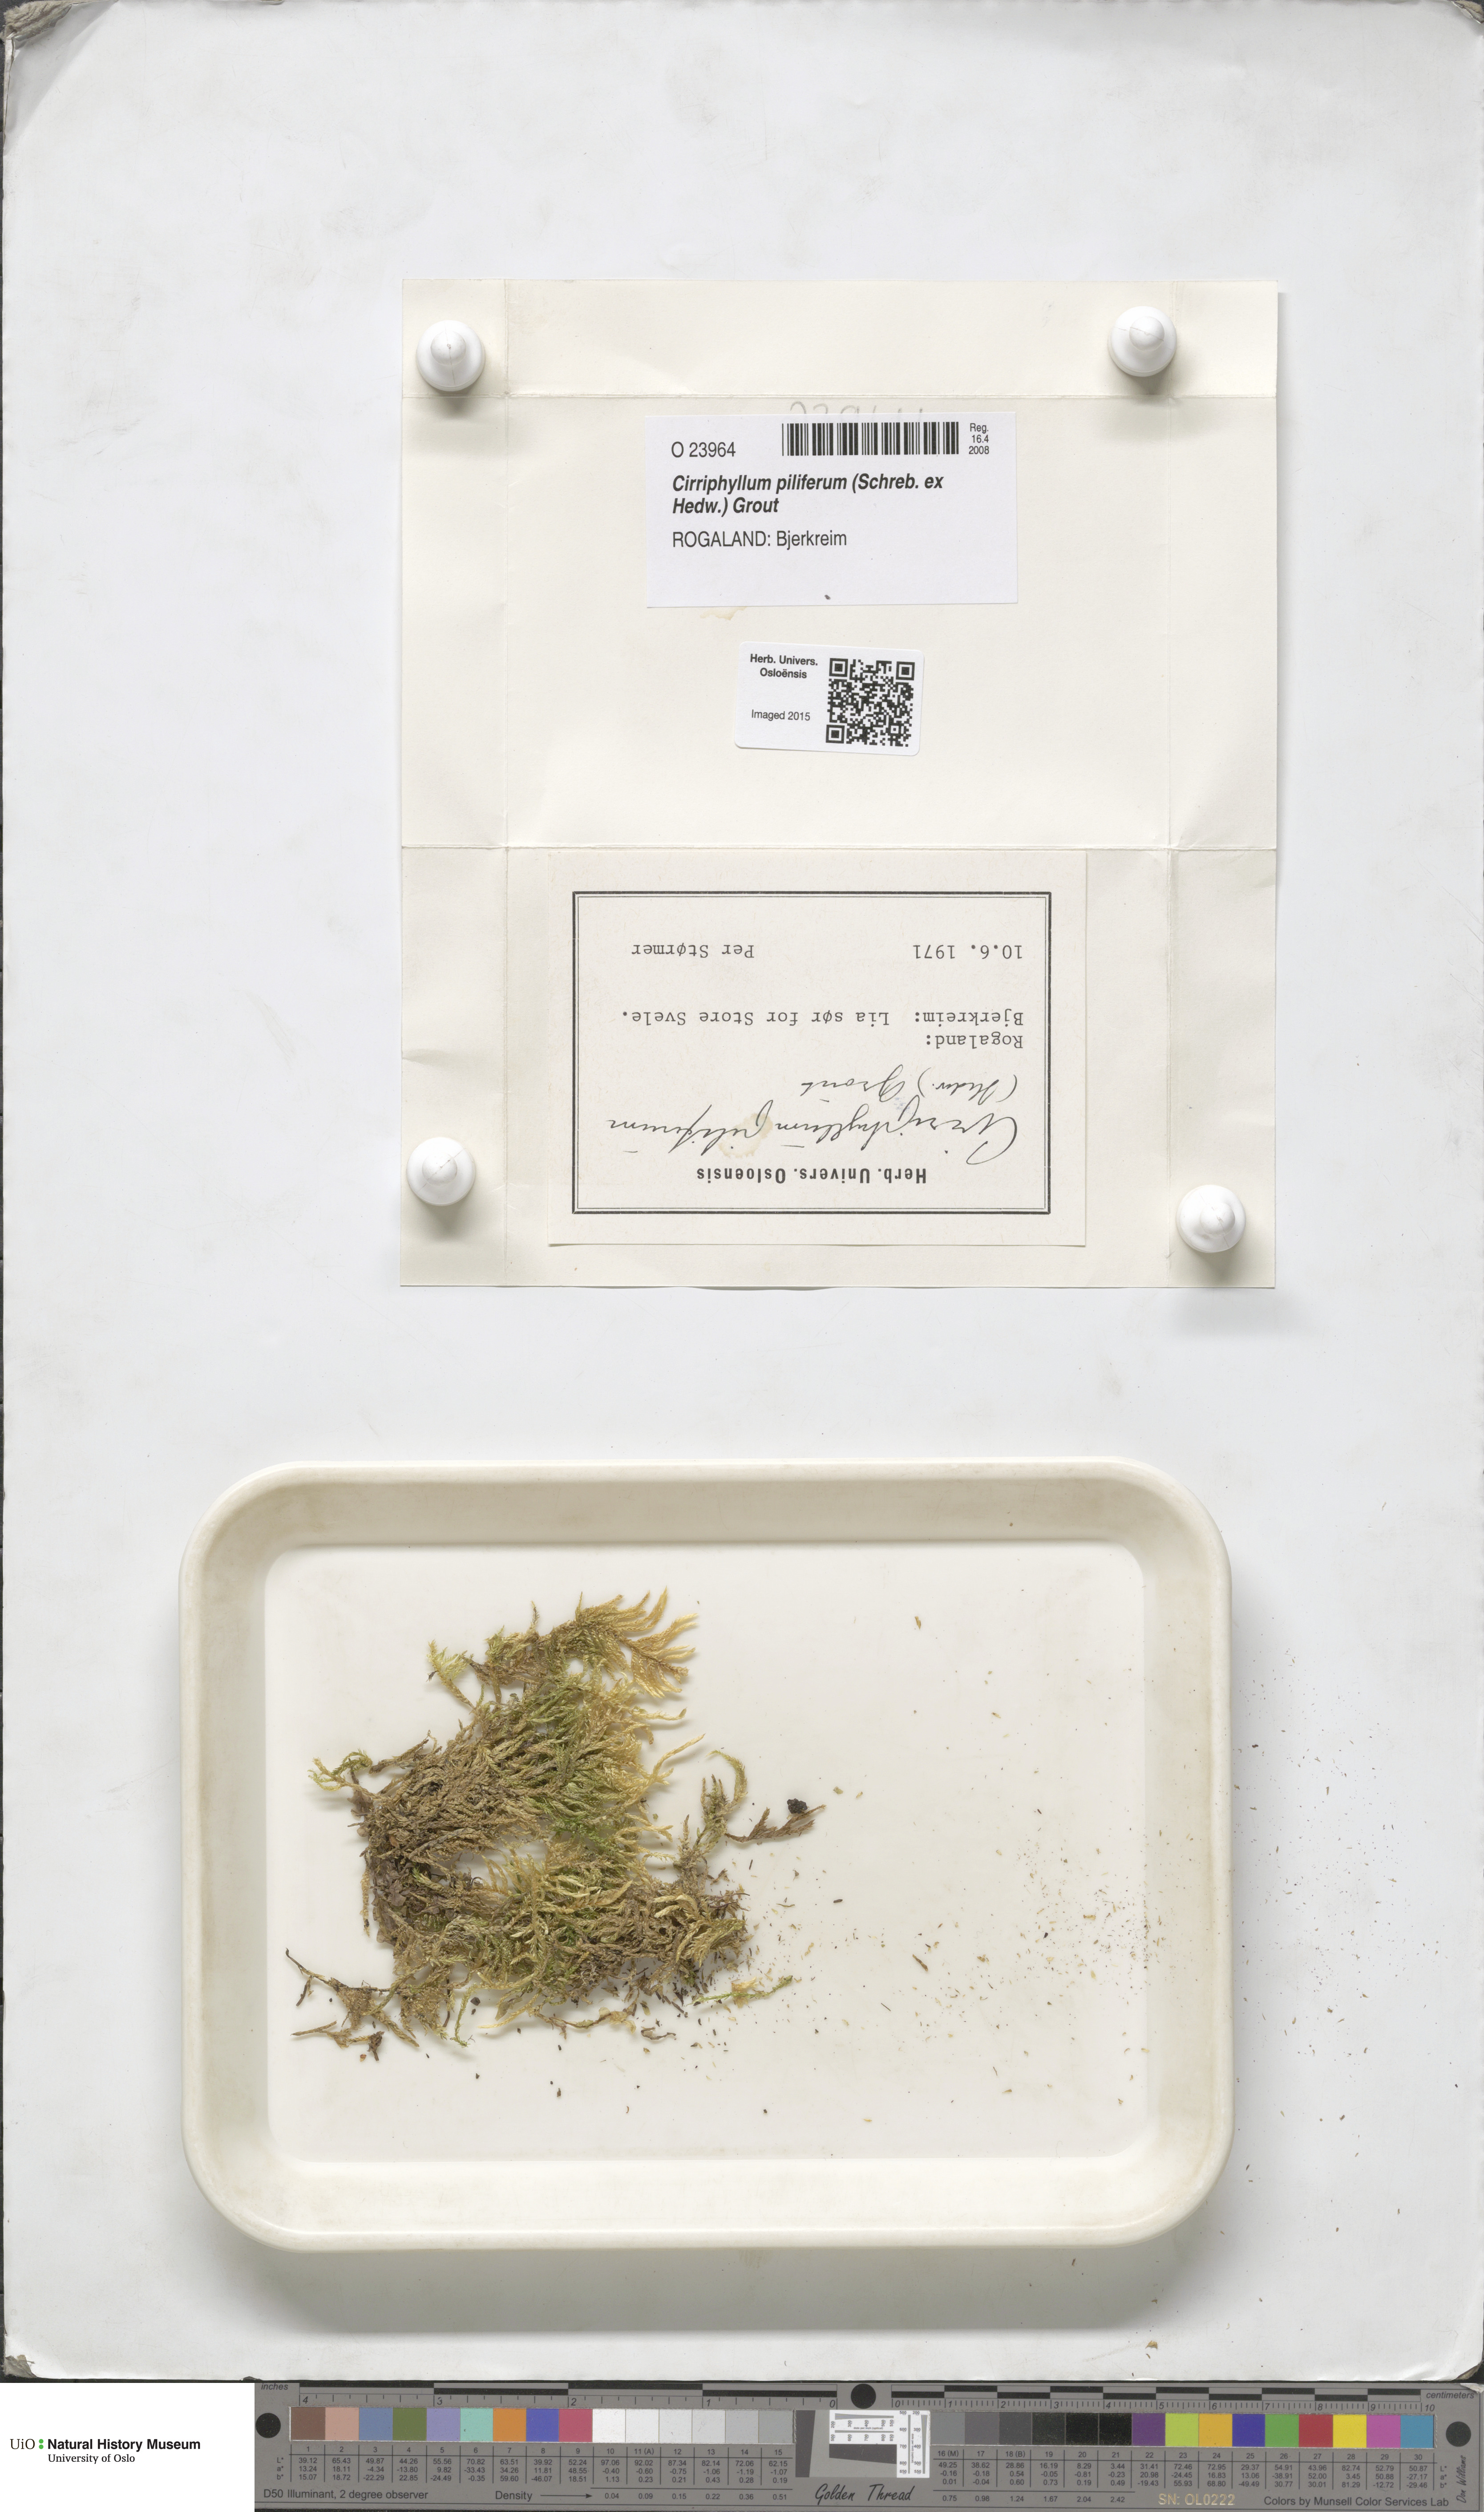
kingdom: Plantae
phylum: Bryophyta
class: Bryopsida
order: Hypnales
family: Brachytheciaceae
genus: Cirriphyllum
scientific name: Cirriphyllum piliferum
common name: Hair-pointed moss
